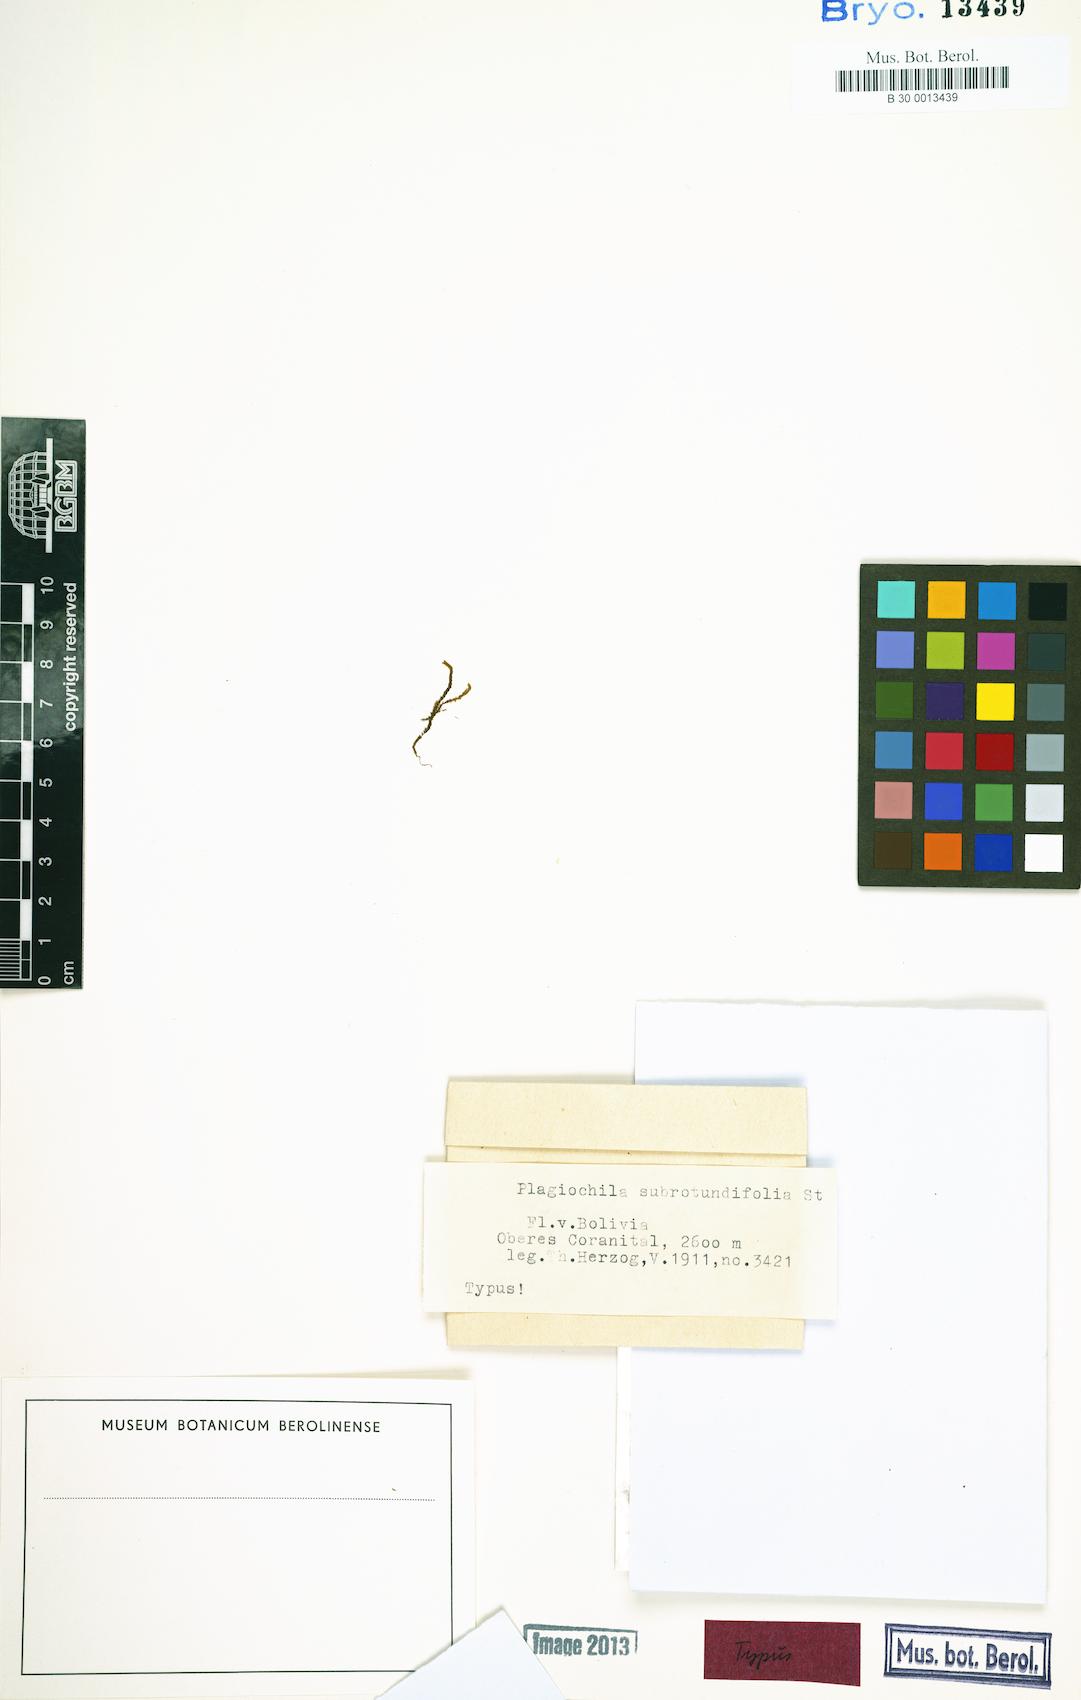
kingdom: Plantae
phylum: Marchantiophyta
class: Jungermanniopsida
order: Jungermanniales
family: Plagiochilaceae
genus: Plagiochila
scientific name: Plagiochila bifaria
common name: Killarney featherwort
